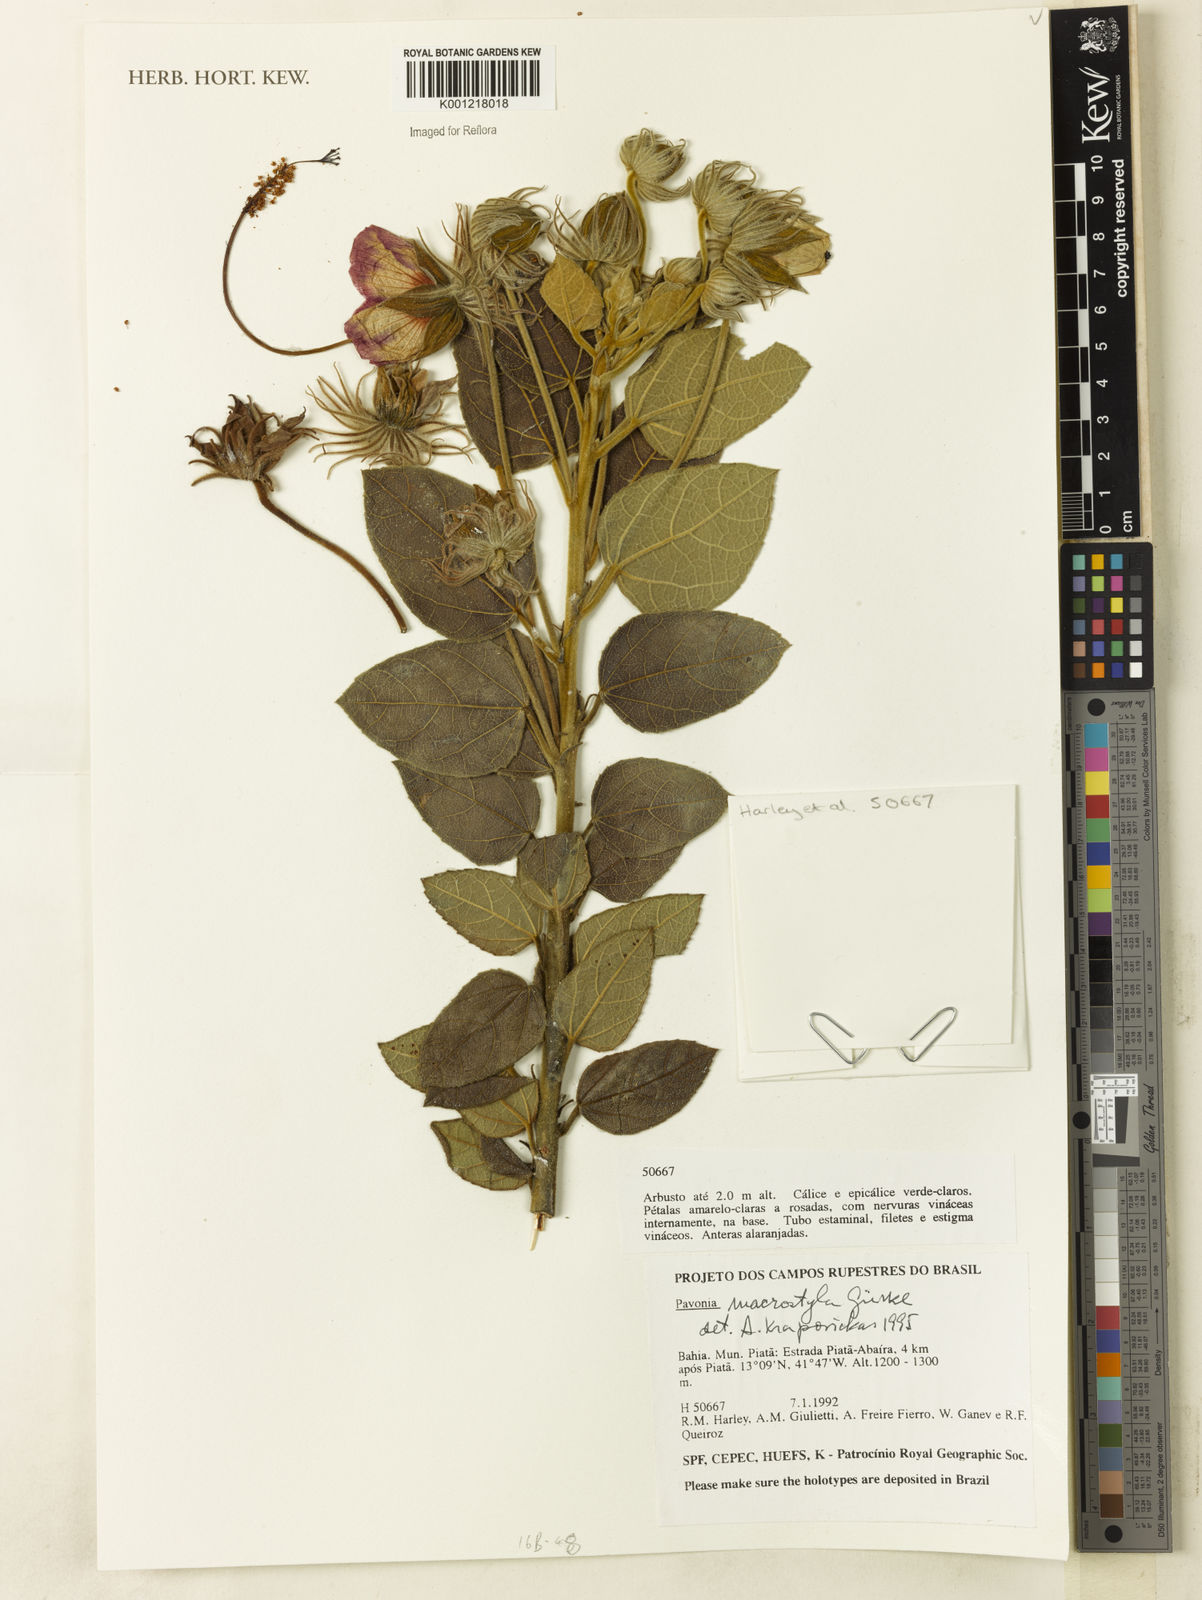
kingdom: Plantae
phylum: Tracheophyta
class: Magnoliopsida
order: Malvales
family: Malvaceae
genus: Pavonia
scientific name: Pavonia
